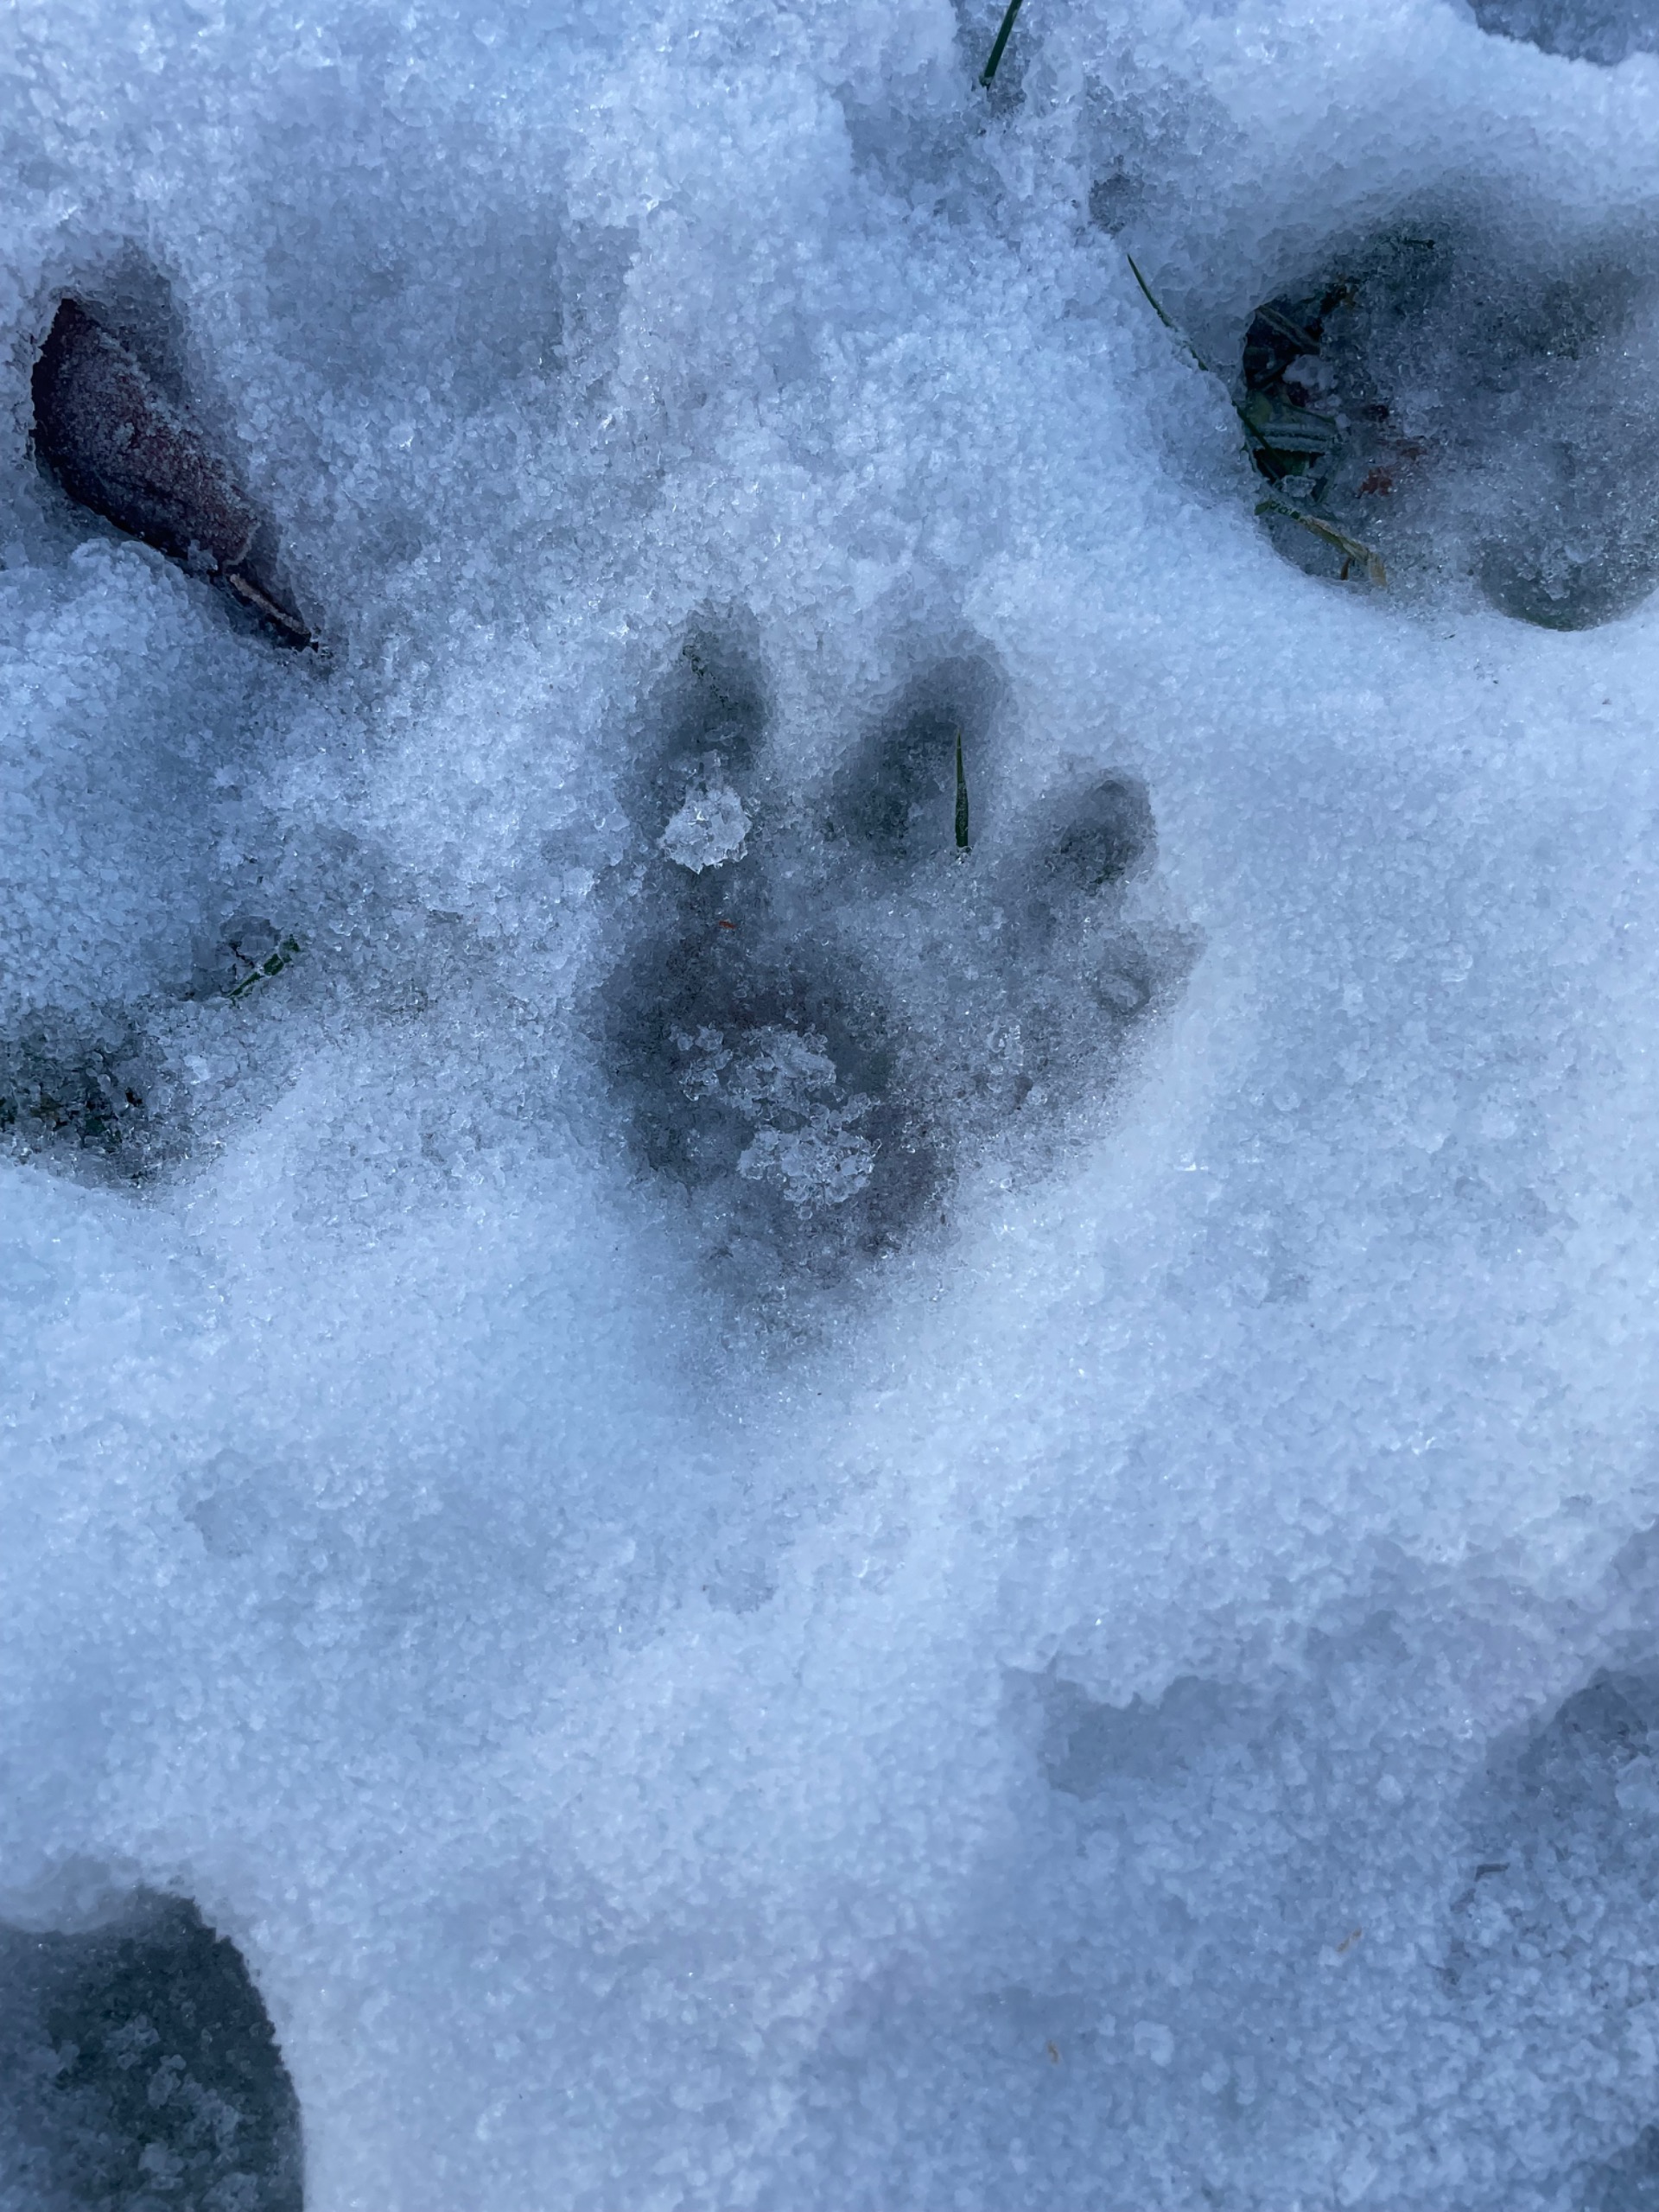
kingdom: Animalia
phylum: Chordata
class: Mammalia
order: Carnivora
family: Felidae
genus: Felis
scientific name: Felis catus
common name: Tamkat
